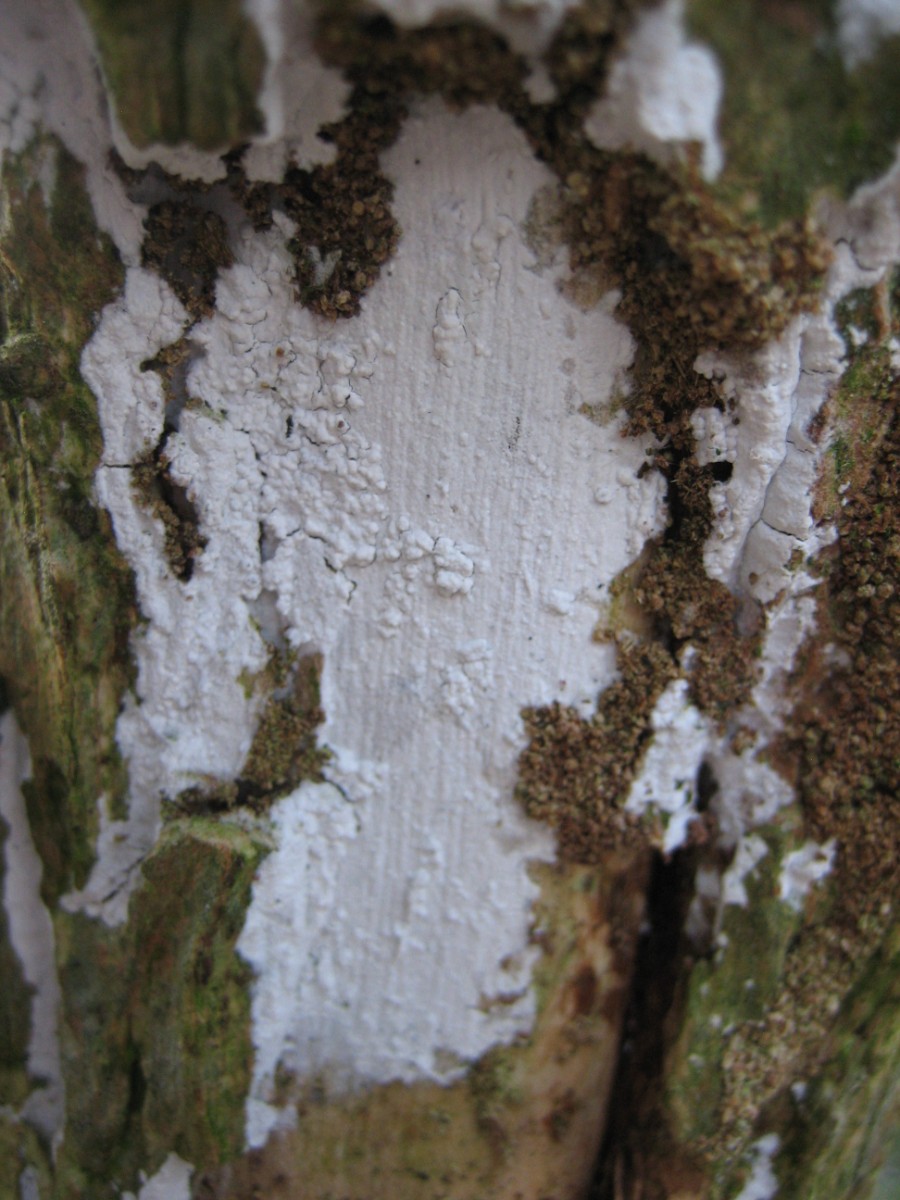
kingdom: Fungi
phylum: Basidiomycota
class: Agaricomycetes
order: Corticiales
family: Corticiaceae
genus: Lyomyces
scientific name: Lyomyces sambuci
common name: almindelig hyldehinde
